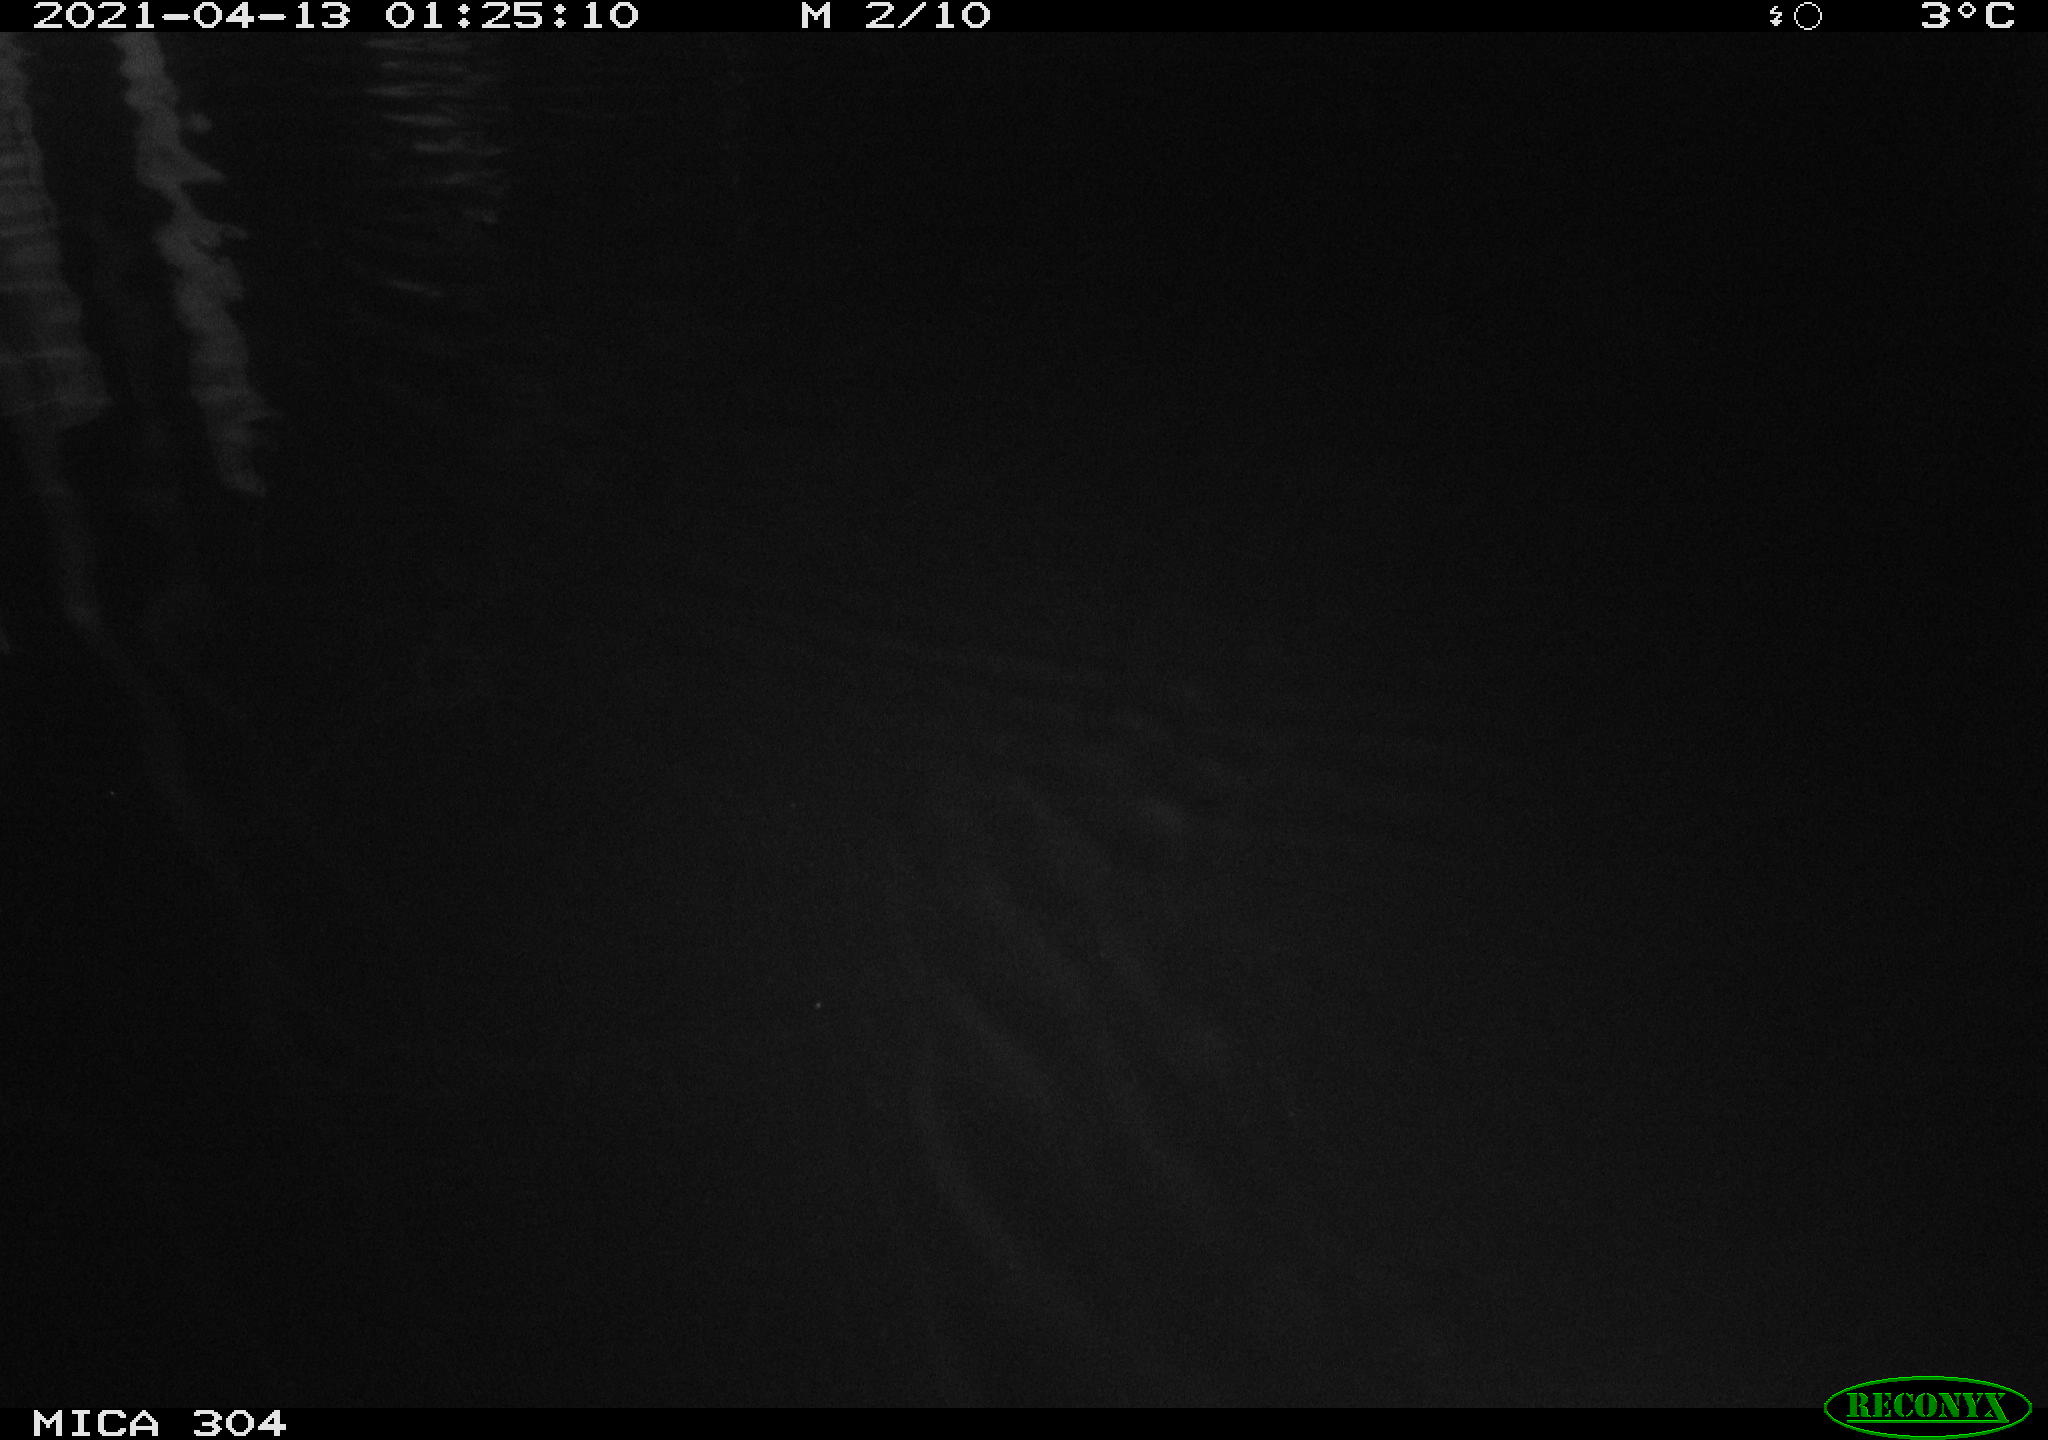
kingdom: Animalia
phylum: Chordata
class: Aves
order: Anseriformes
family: Anatidae
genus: Anas
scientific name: Anas
